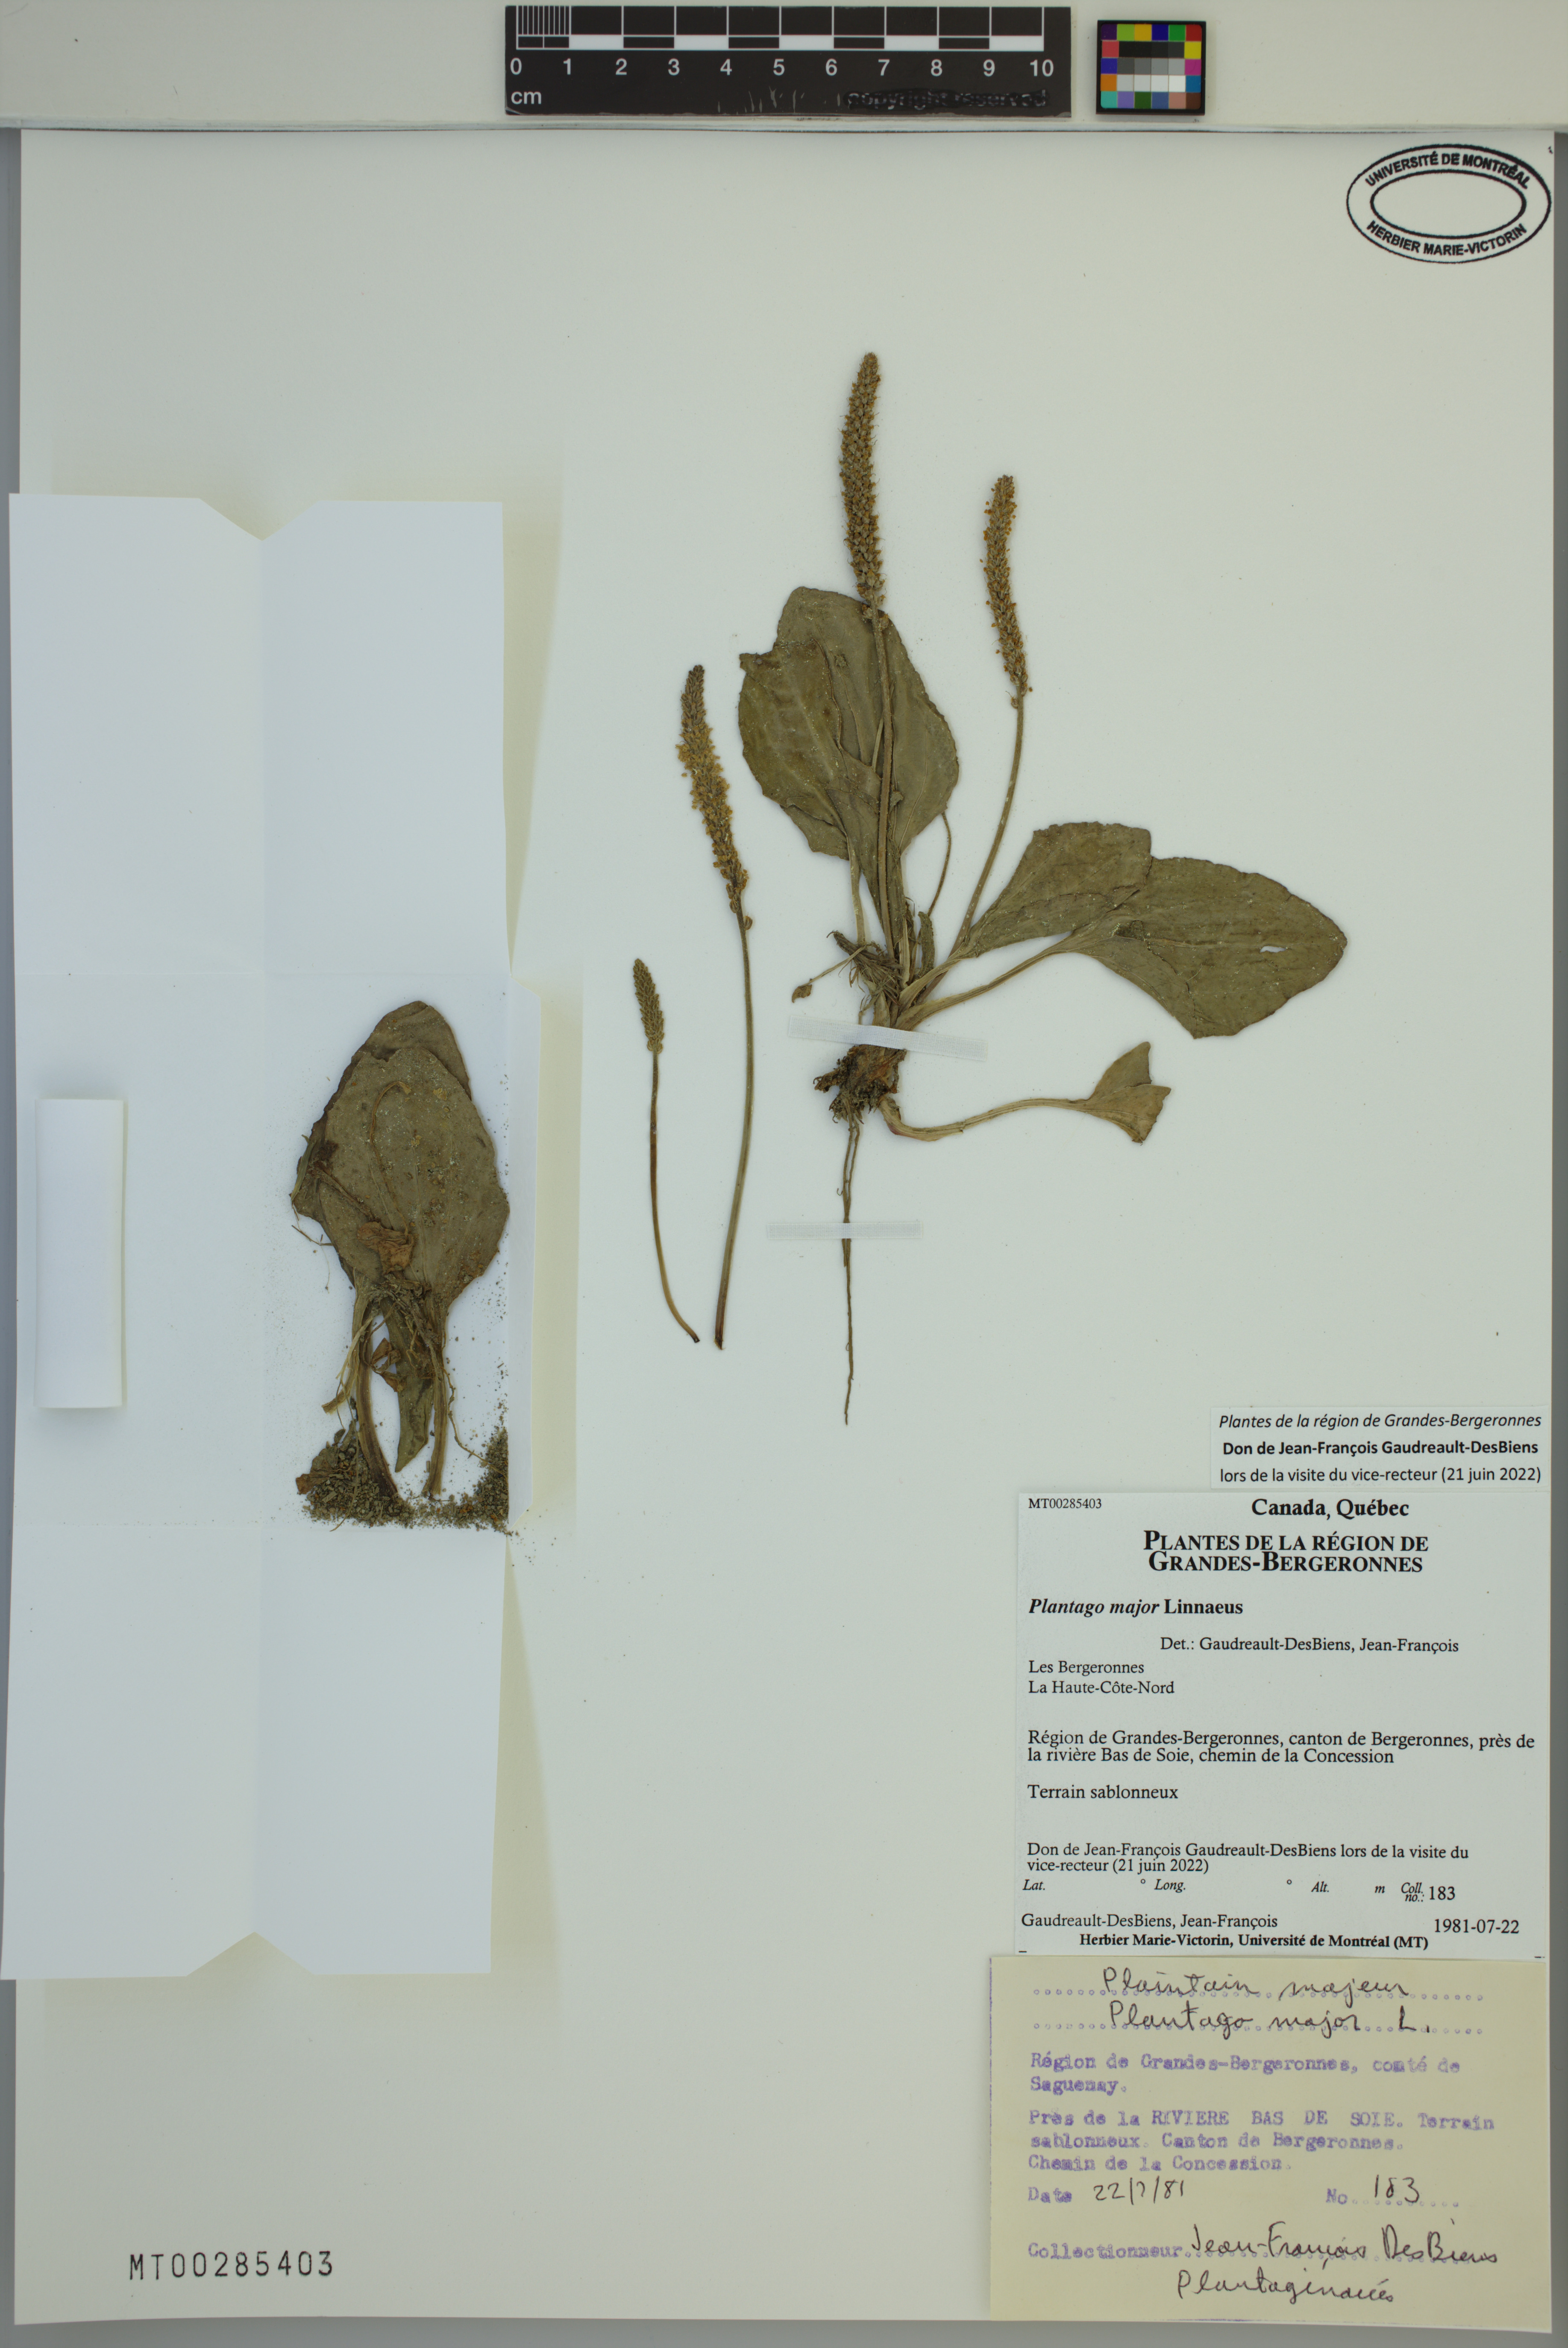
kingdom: Plantae
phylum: Tracheophyta
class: Magnoliopsida
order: Lamiales
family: Plantaginaceae
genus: Plantago
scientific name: Plantago major
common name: Common plantain
